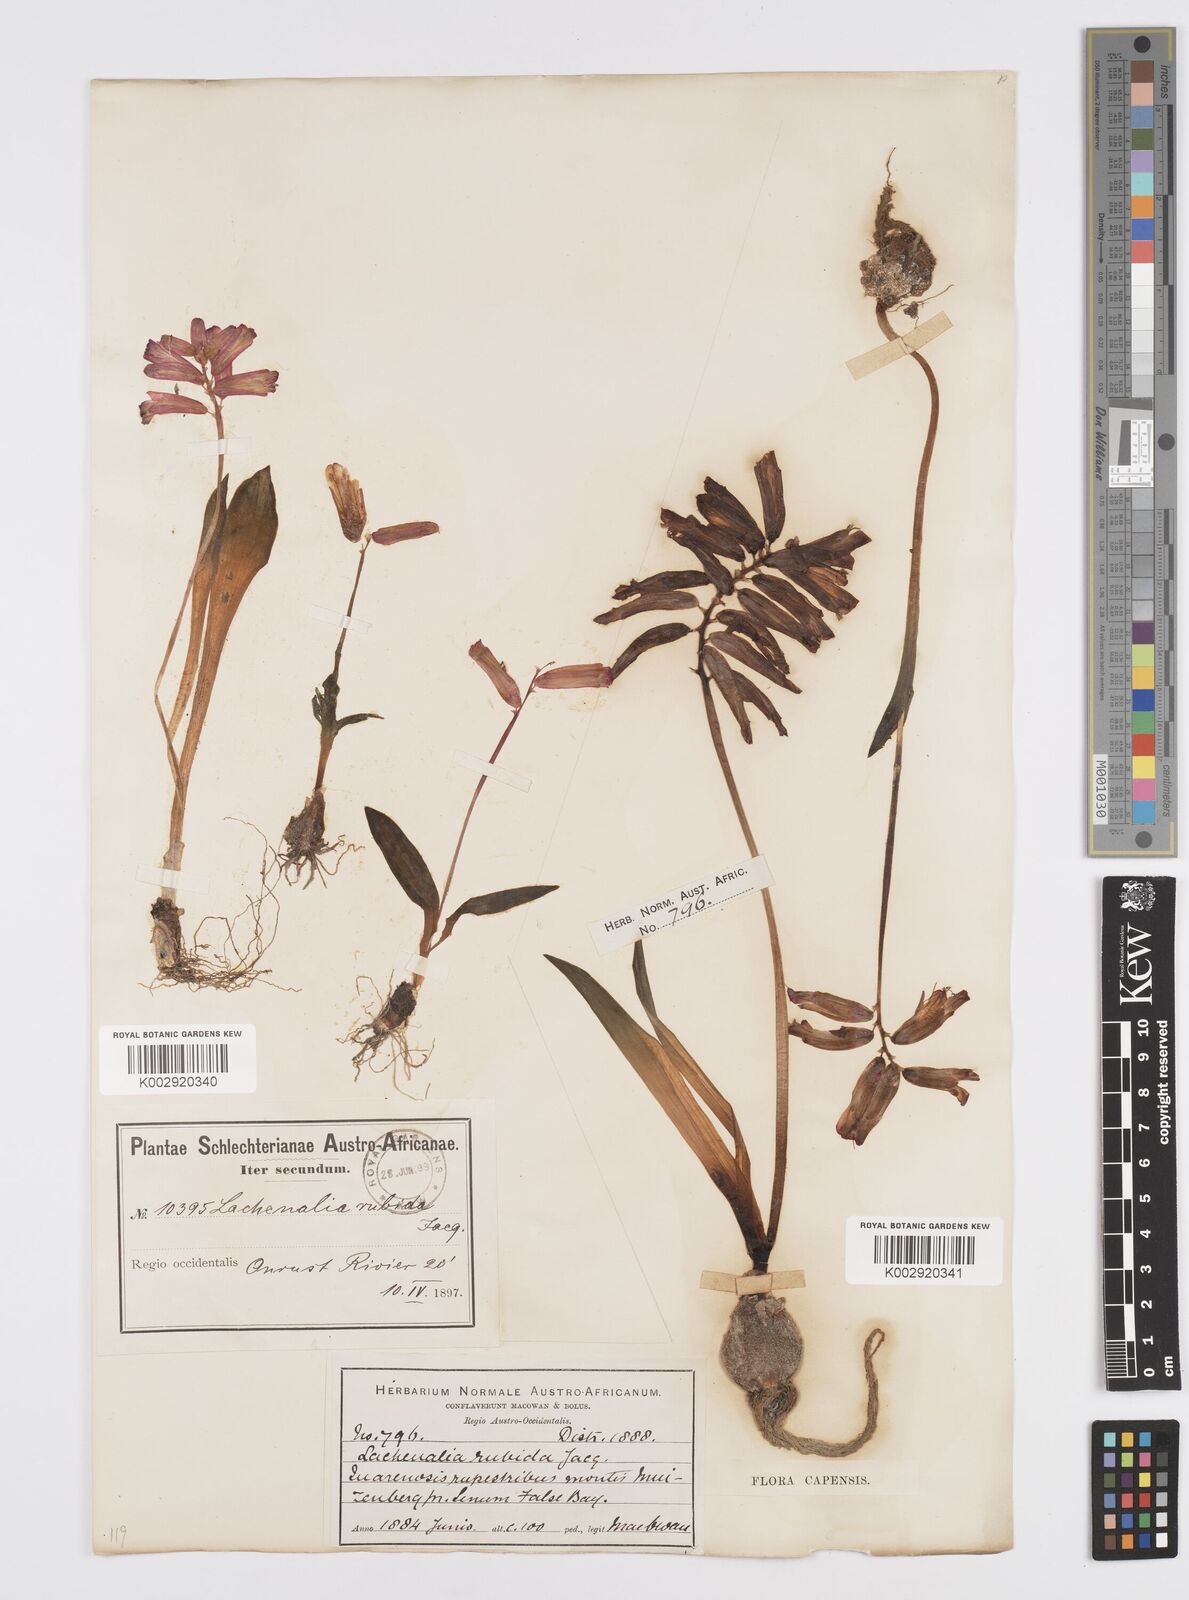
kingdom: Plantae
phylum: Tracheophyta
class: Liliopsida
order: Asparagales
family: Asparagaceae
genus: Lachenalia
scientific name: Lachenalia punctata
